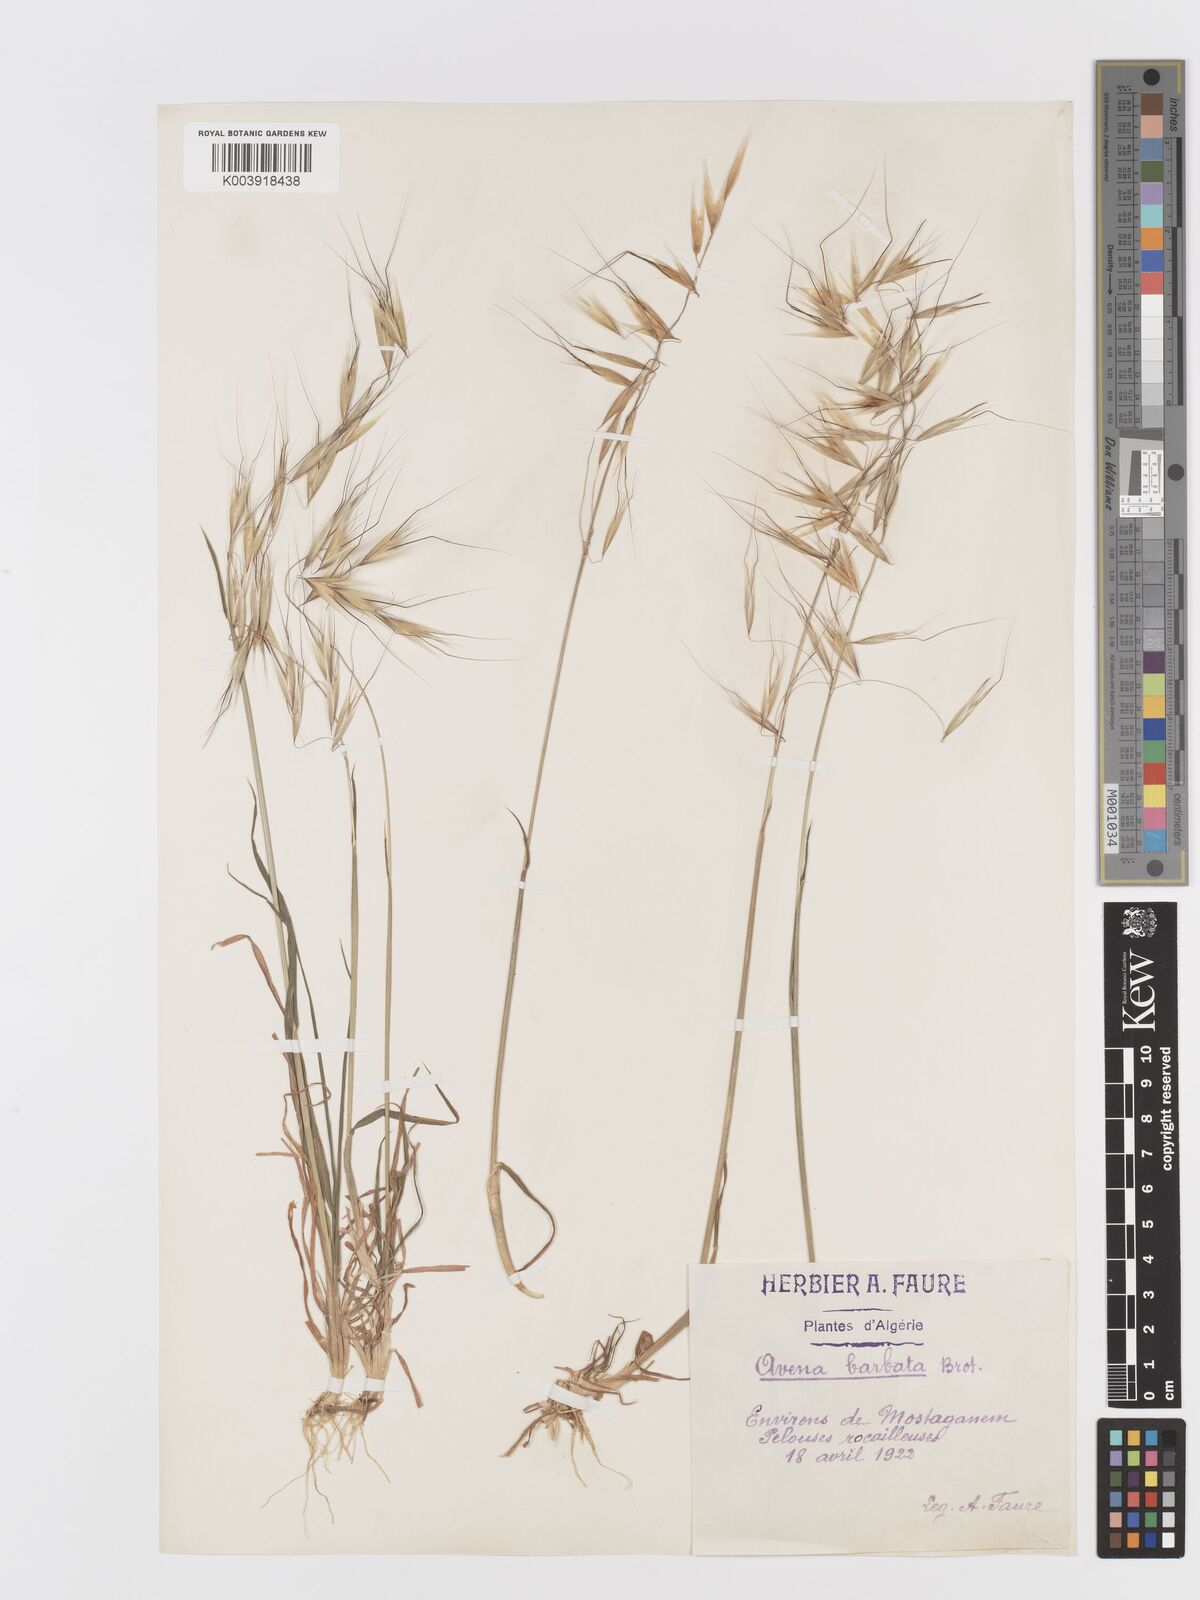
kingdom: Plantae
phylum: Tracheophyta
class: Liliopsida
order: Poales
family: Poaceae
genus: Avena
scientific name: Avena
